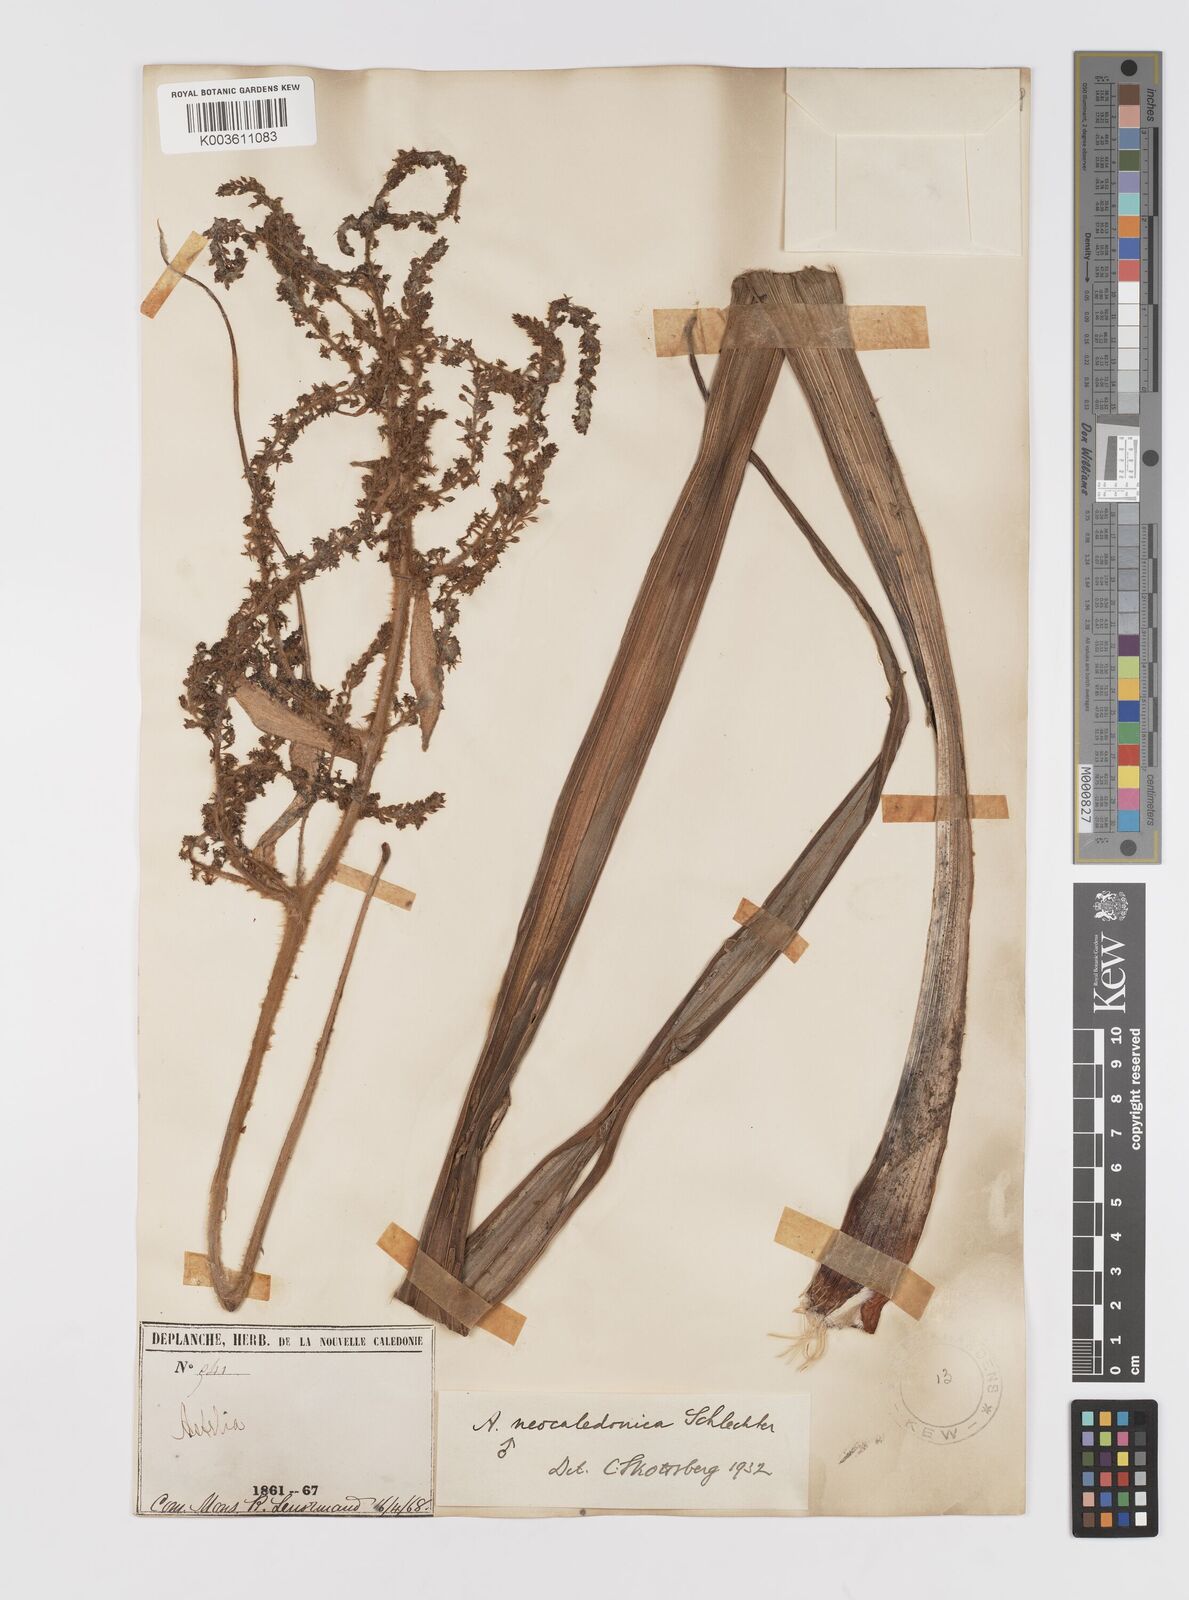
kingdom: Plantae
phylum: Tracheophyta
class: Liliopsida
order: Asparagales
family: Asteliaceae
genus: Astelia
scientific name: Astelia neocaledonica
